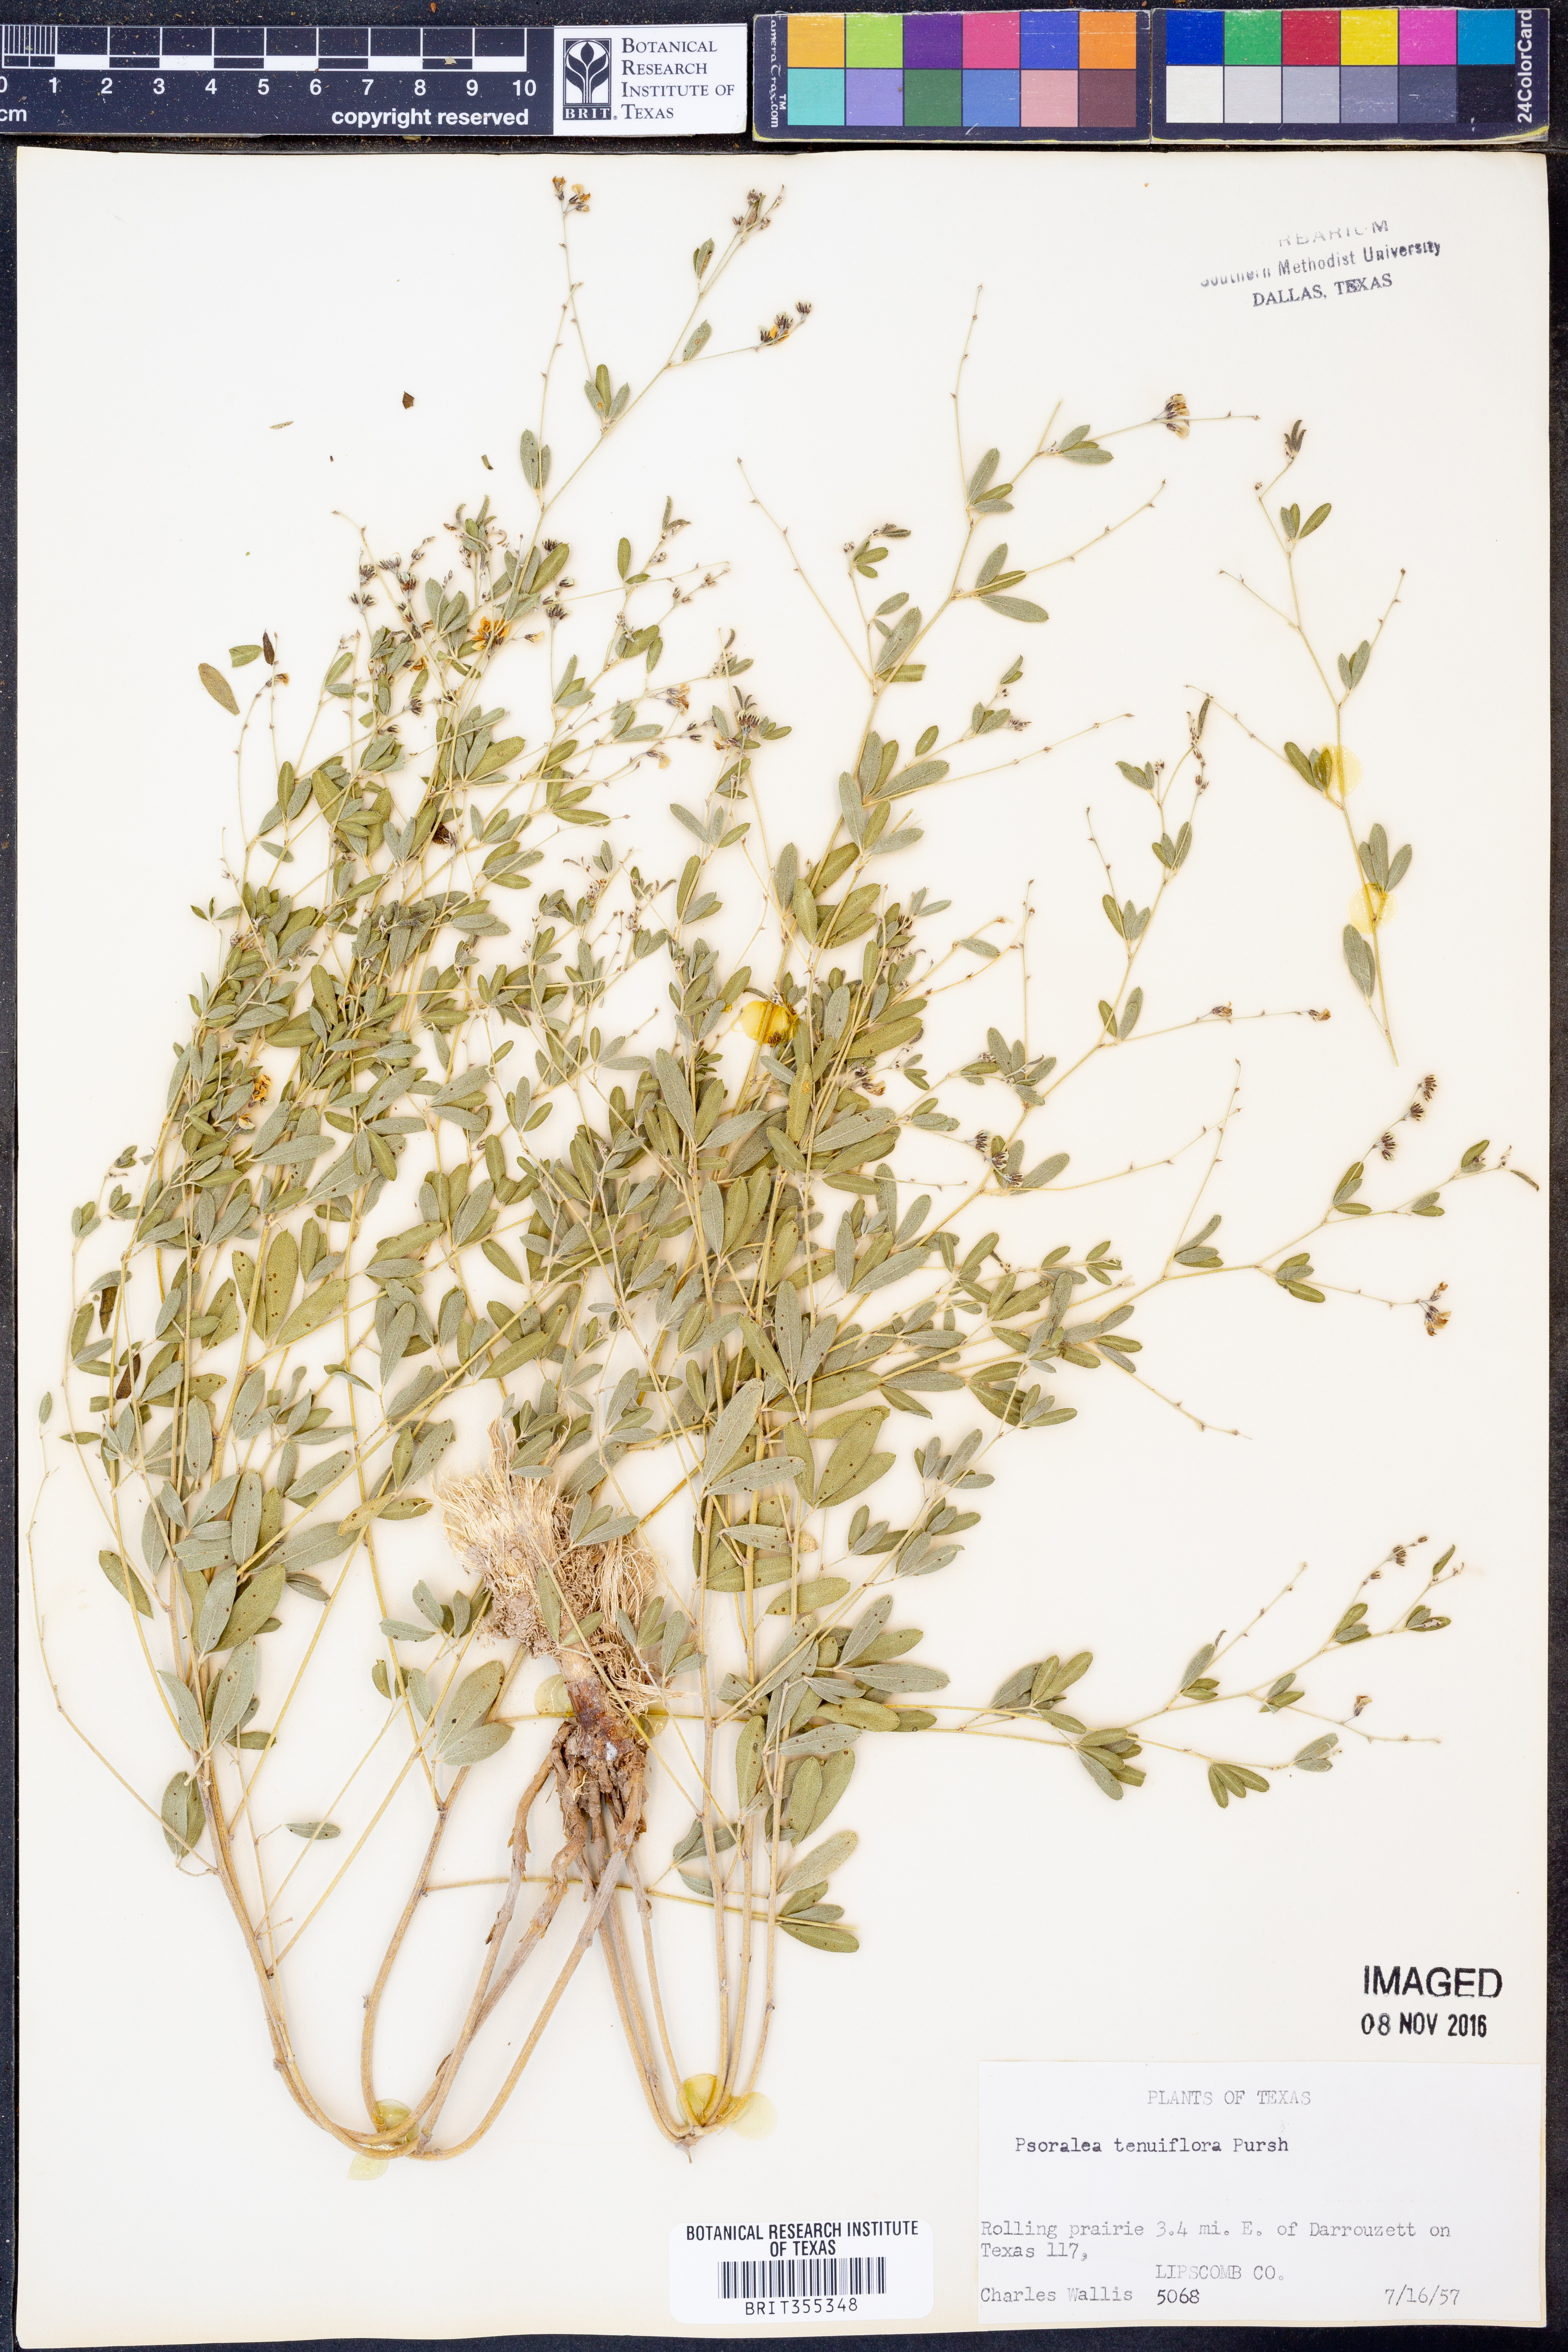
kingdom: Plantae
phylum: Tracheophyta
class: Magnoliopsida
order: Fabales
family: Fabaceae
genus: Pediomelum
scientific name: Pediomelum tenuiflorum
